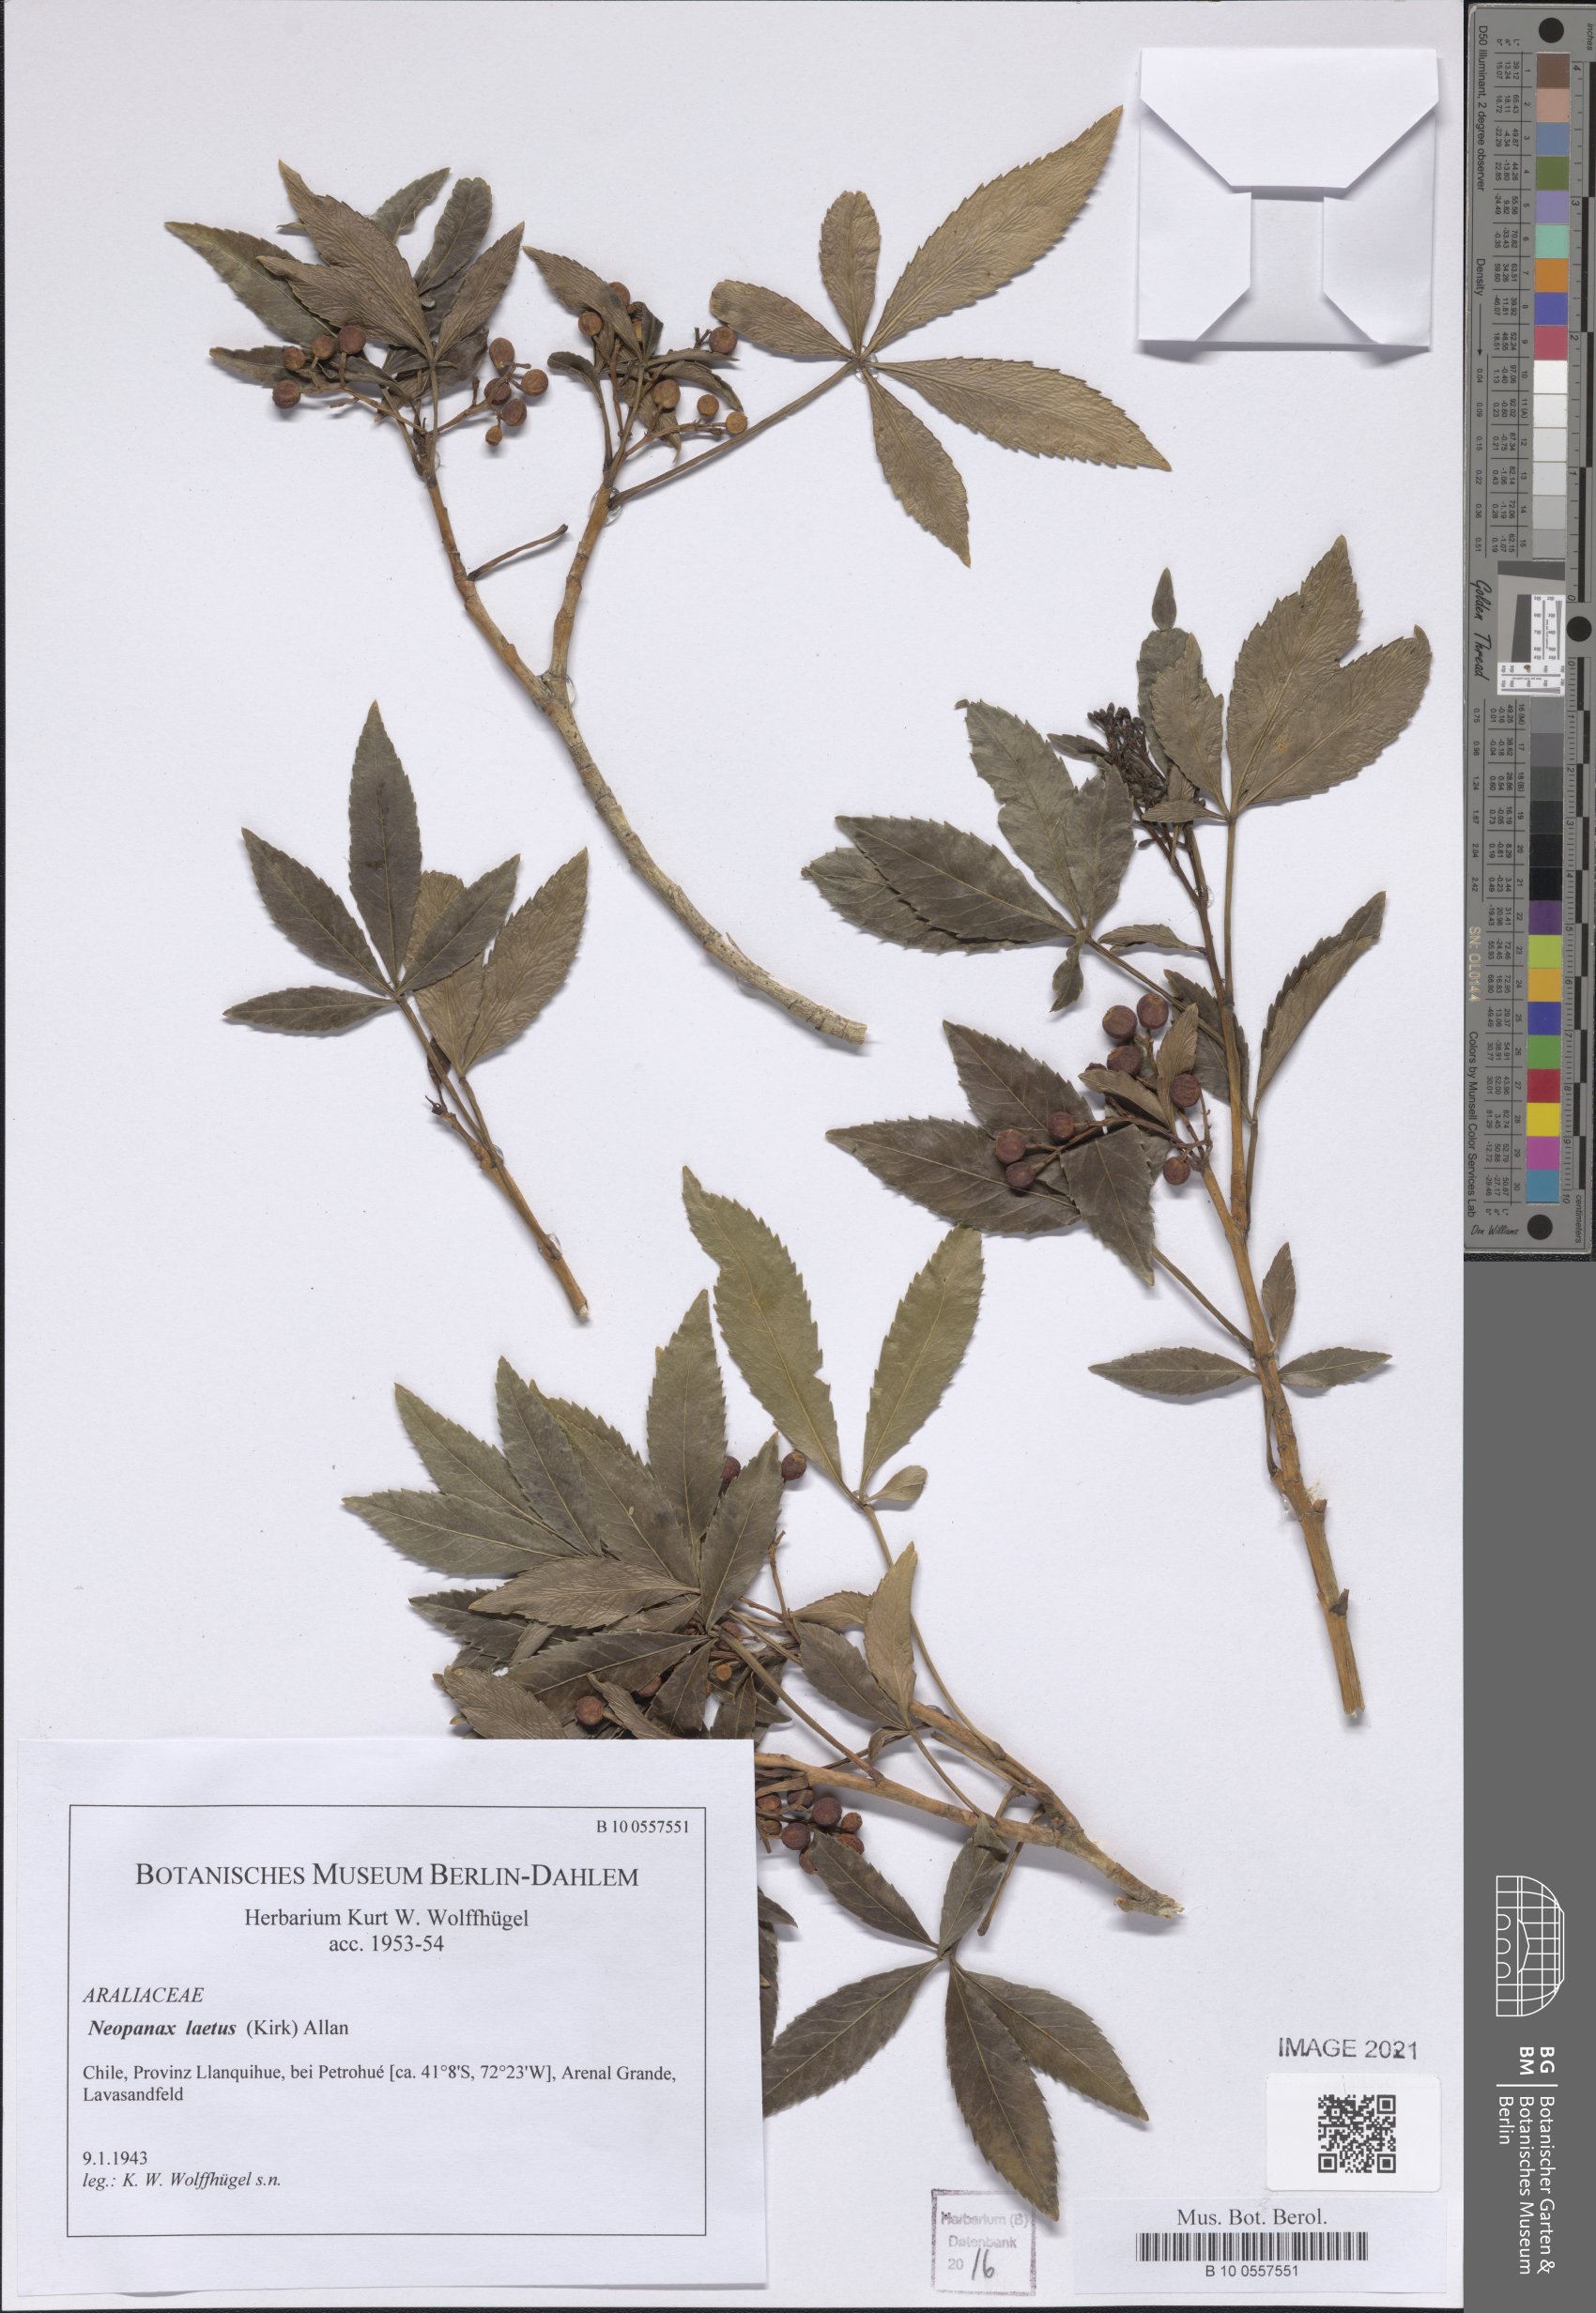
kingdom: Plantae
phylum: Tracheophyta
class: Magnoliopsida
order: Apiales
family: Araliaceae
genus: Neopanax
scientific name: Neopanax laetus
